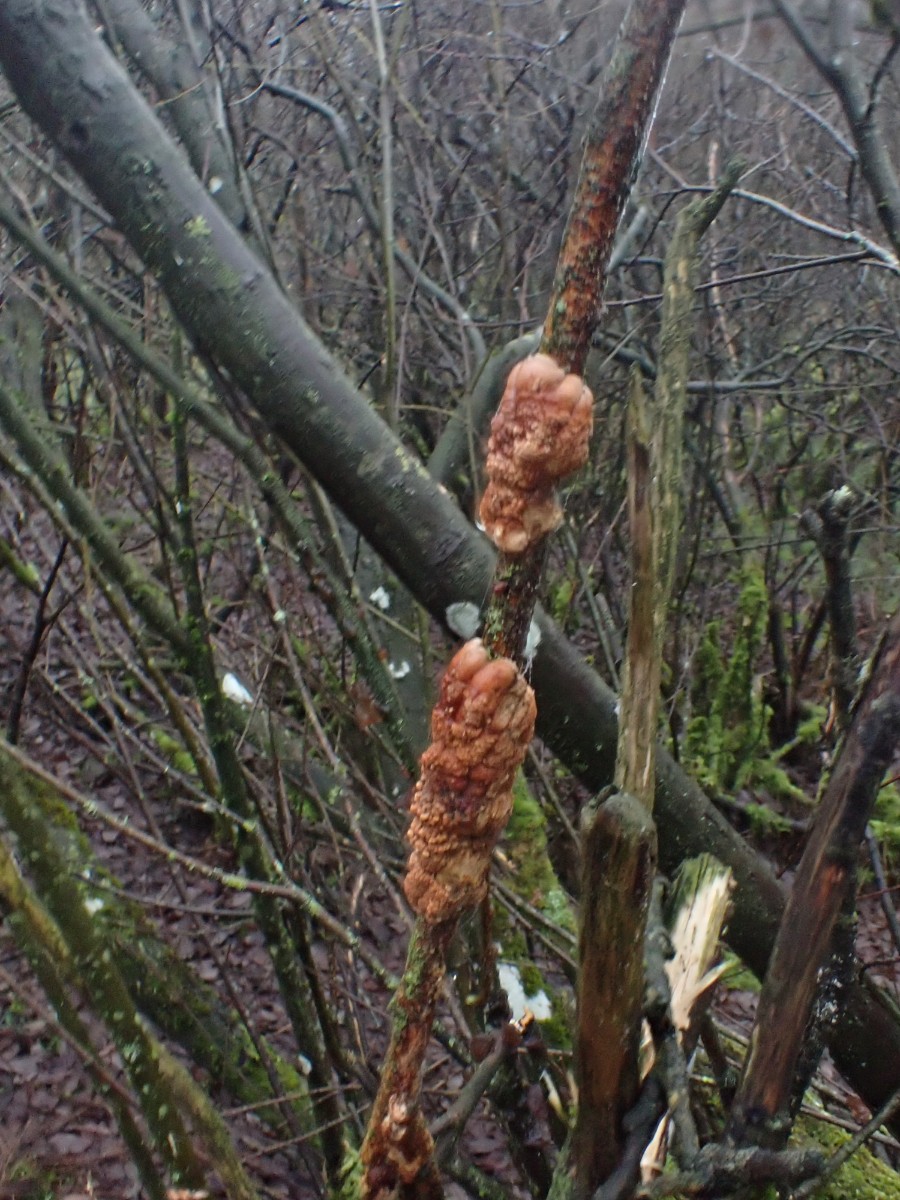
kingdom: Fungi
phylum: Ascomycota
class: Sordariomycetes
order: Hypocreales
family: Hypocreaceae
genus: Hypocreopsis
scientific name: Hypocreopsis lichenoides
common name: pilfinger
